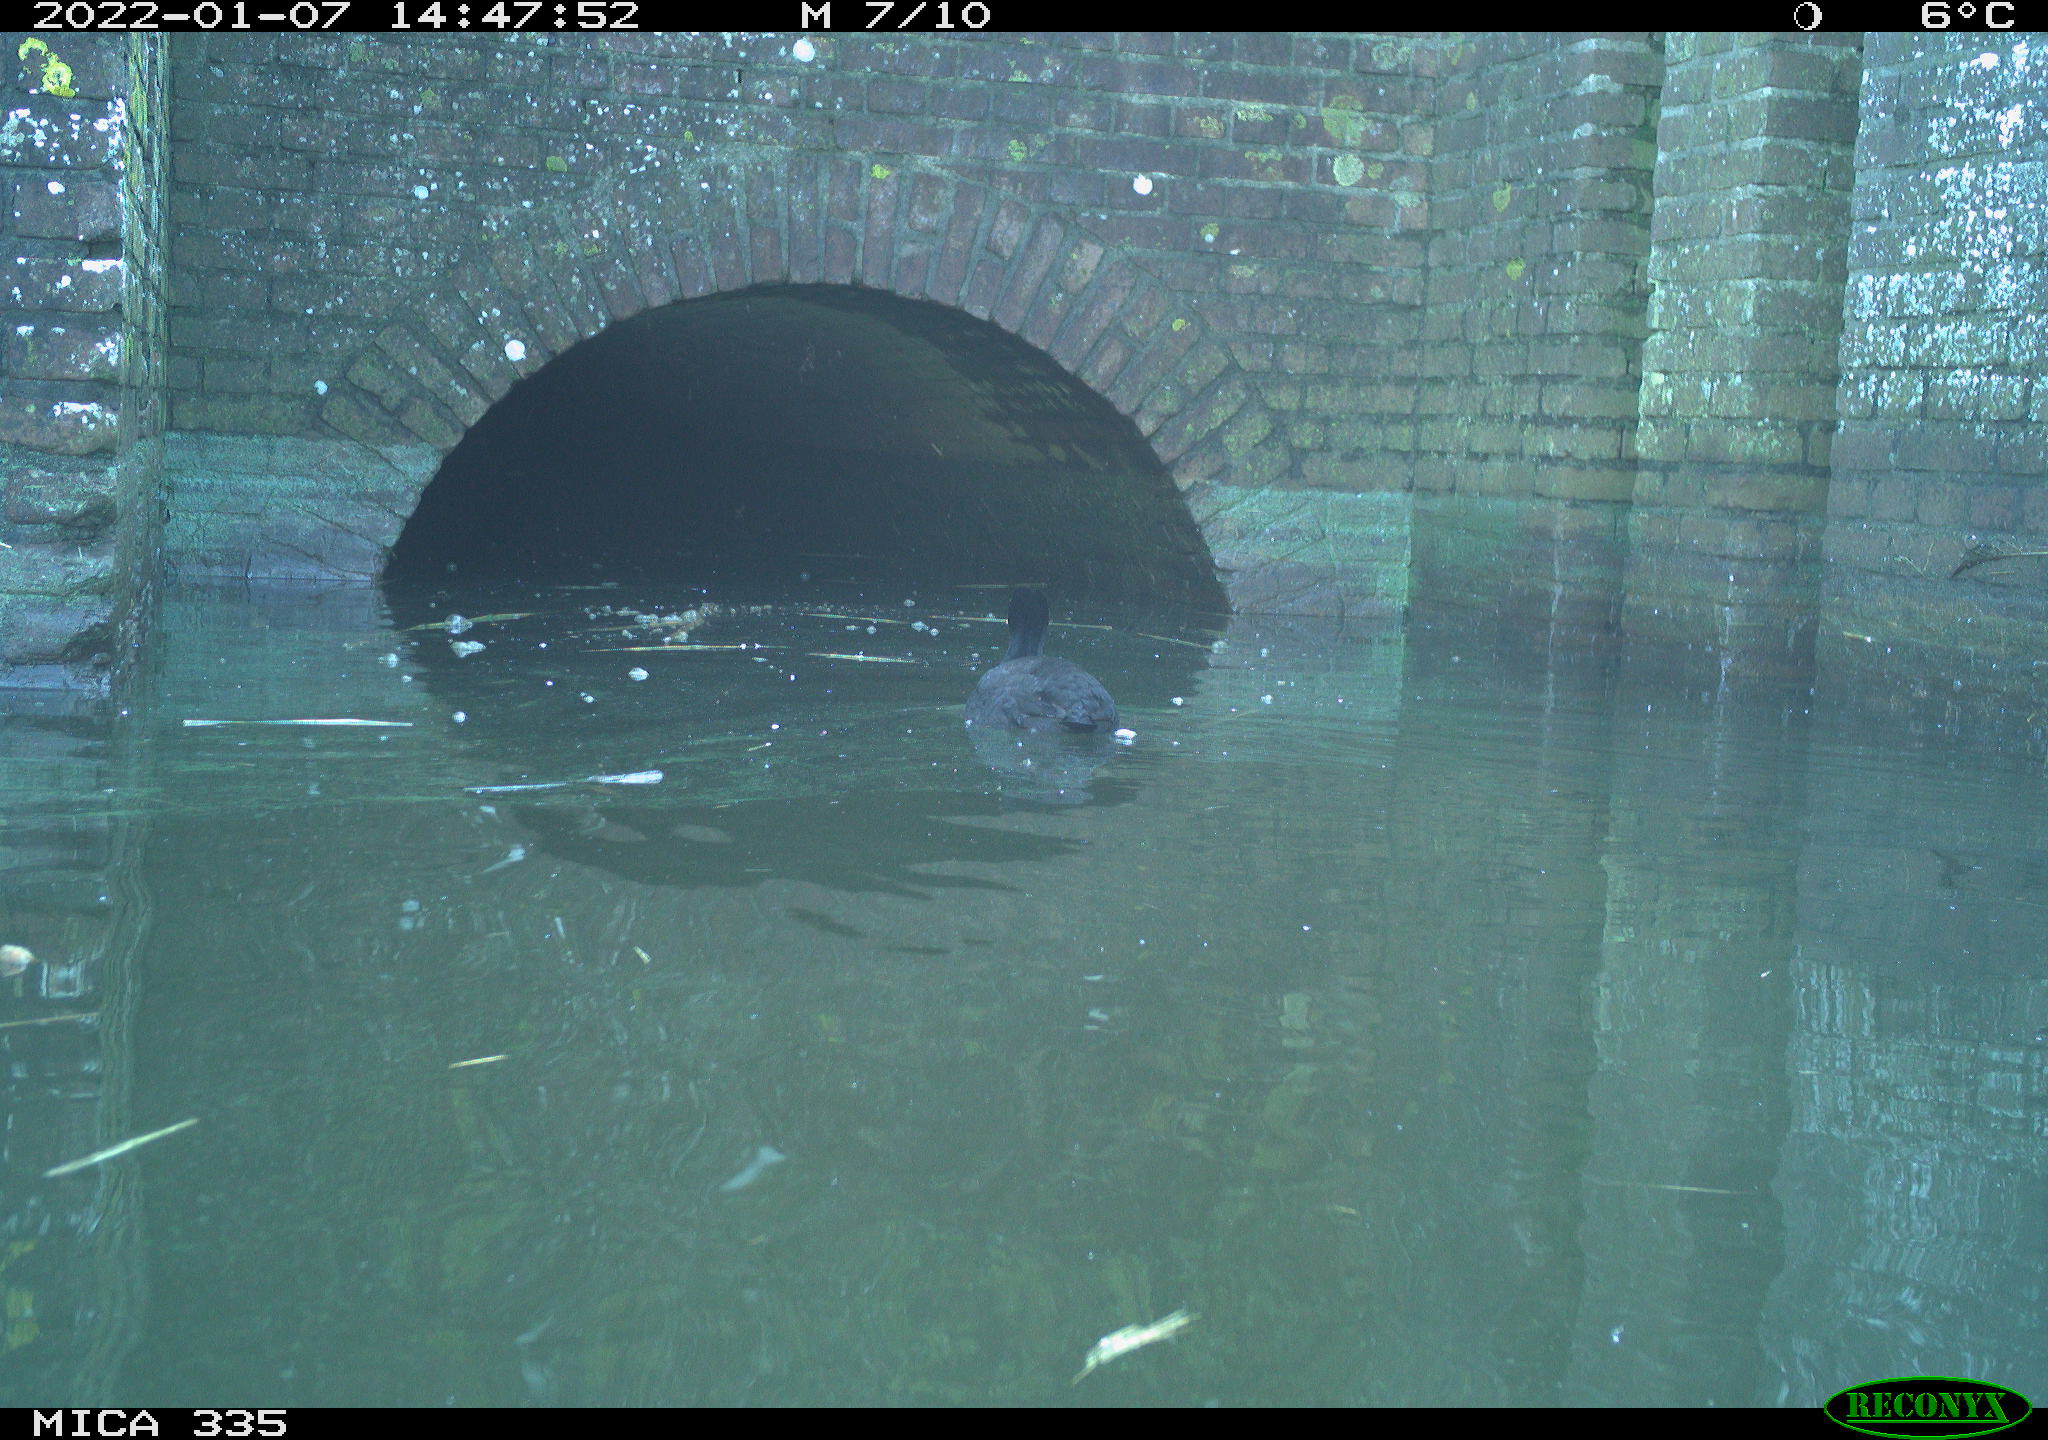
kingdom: Animalia
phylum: Chordata
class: Aves
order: Gruiformes
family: Rallidae
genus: Fulica
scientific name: Fulica atra
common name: Eurasian coot
